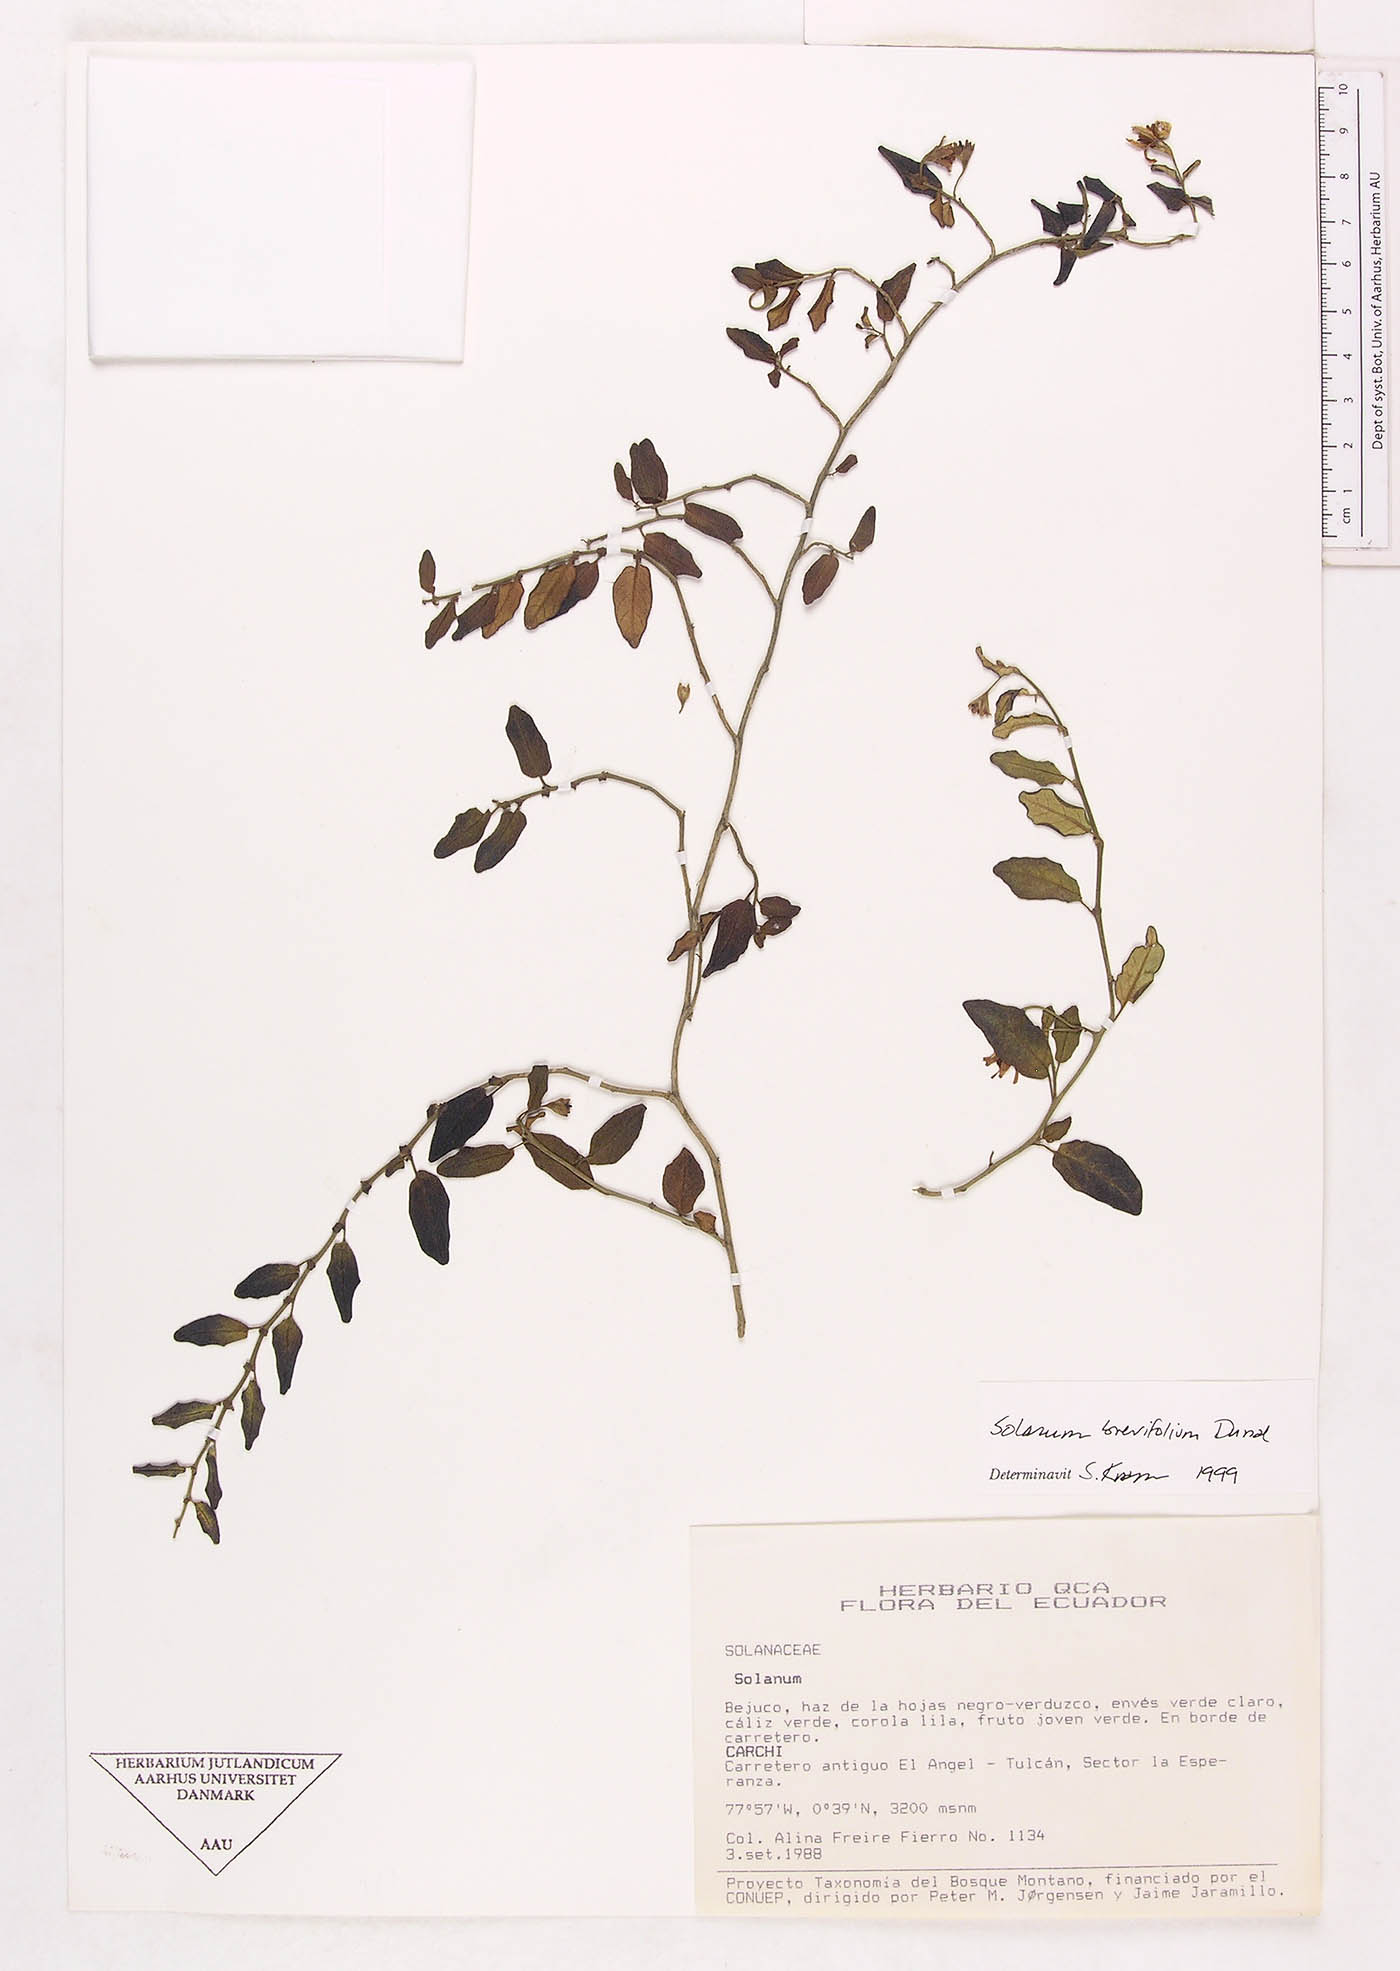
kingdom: Plantae
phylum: Tracheophyta
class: Magnoliopsida
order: Solanales
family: Solanaceae
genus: Solanum
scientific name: Solanum brevifolium
